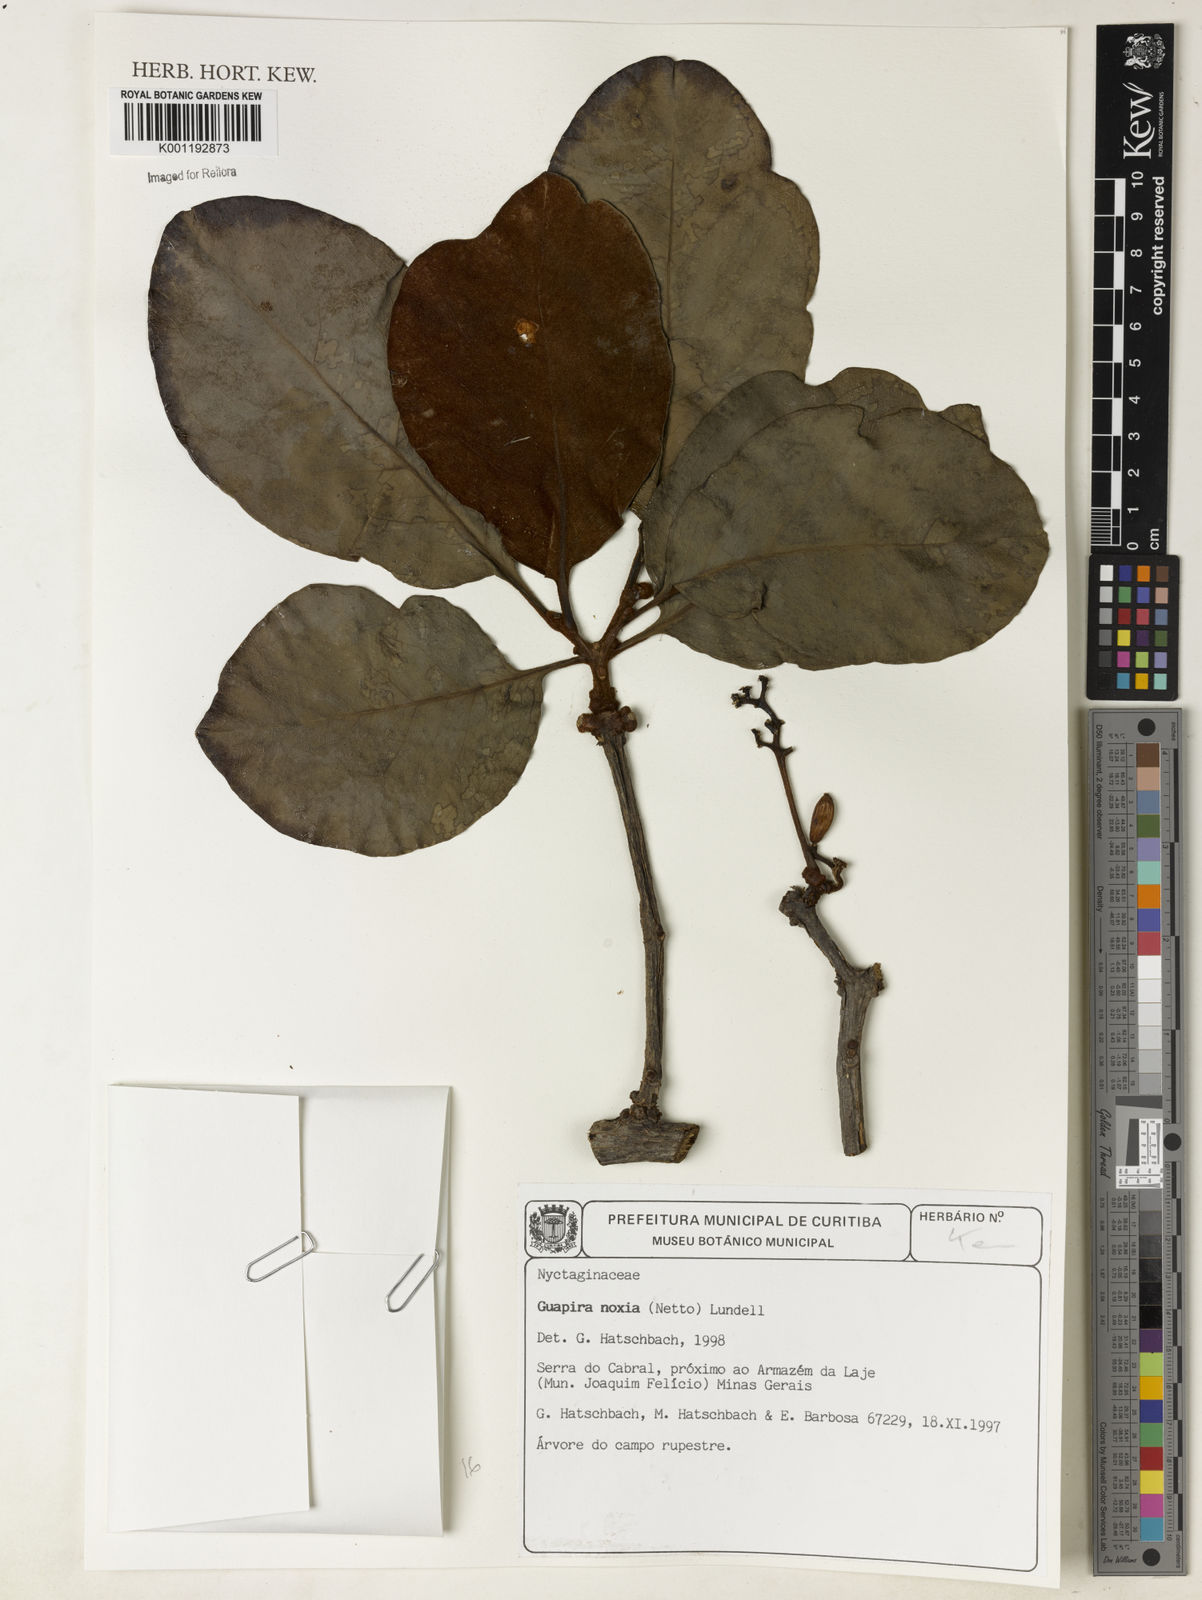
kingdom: Plantae
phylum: Tracheophyta
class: Magnoliopsida
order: Caryophyllales
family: Nyctaginaceae
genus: Guapira
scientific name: Guapira noxia
